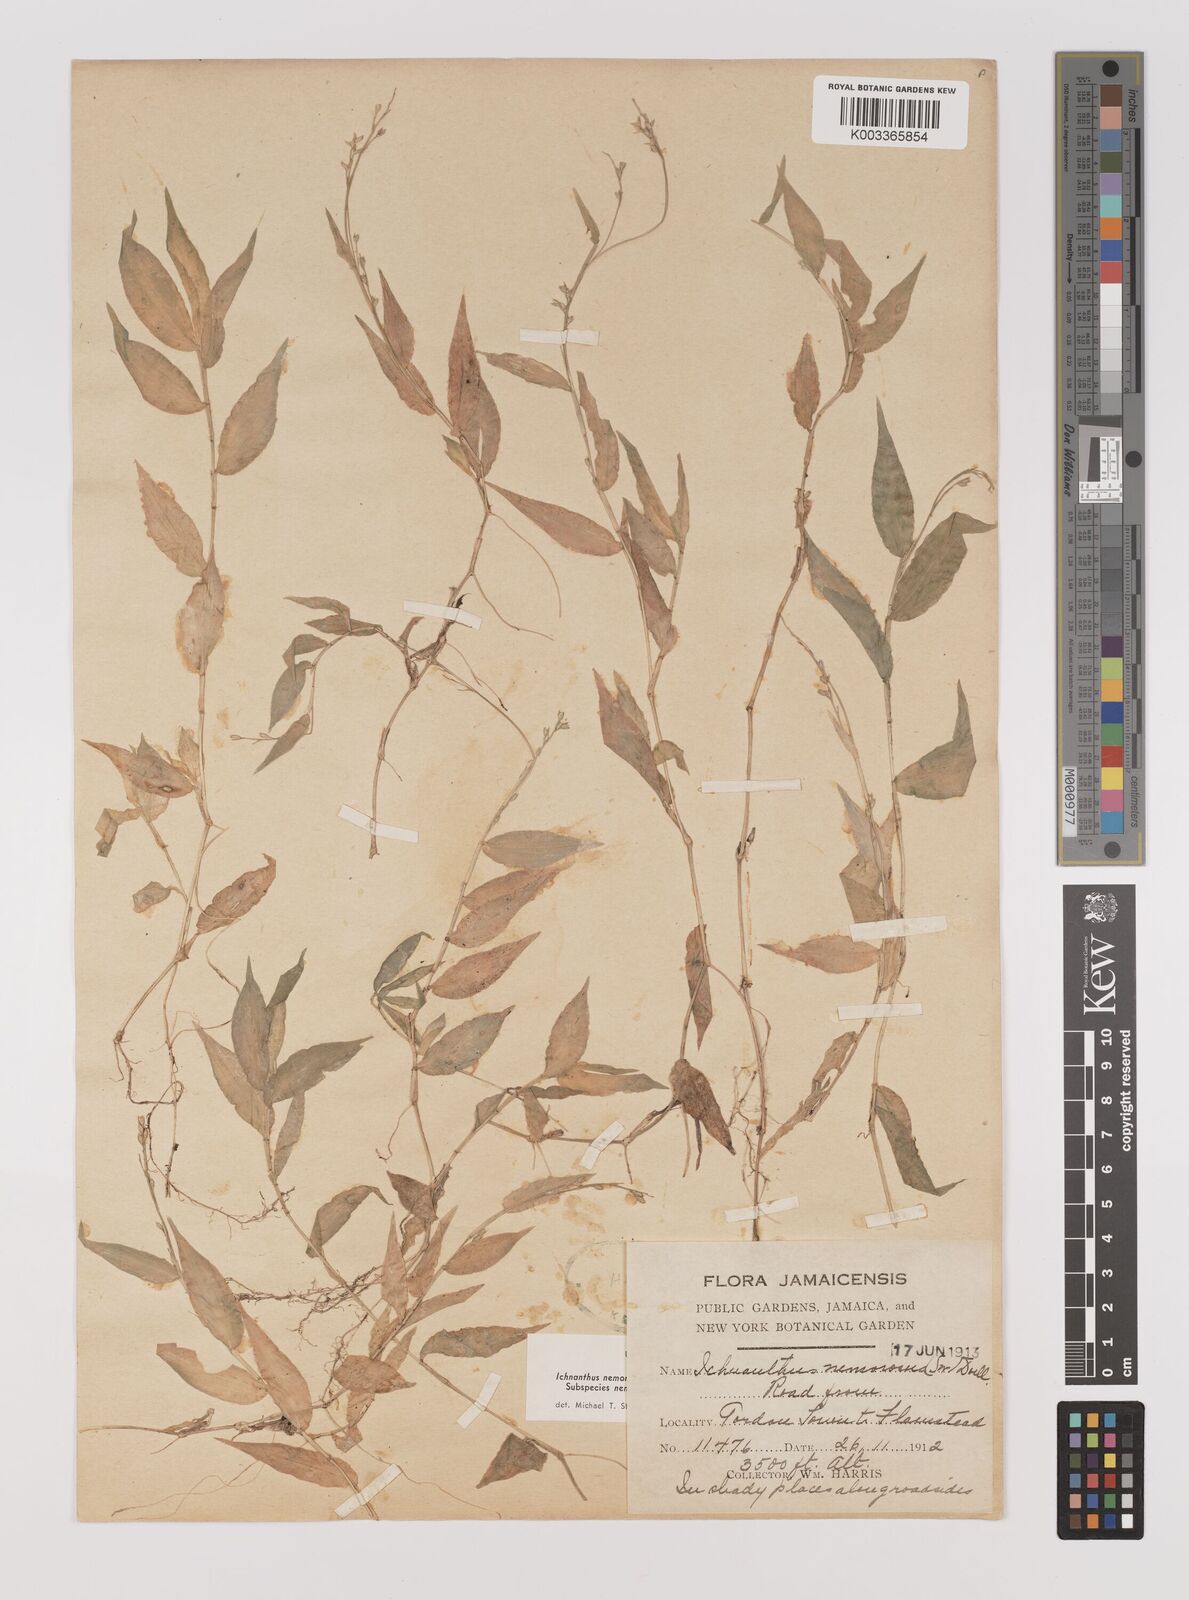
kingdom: Plantae
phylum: Tracheophyta
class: Liliopsida
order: Poales
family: Poaceae
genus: Ichnanthus
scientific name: Ichnanthus nemorosus
